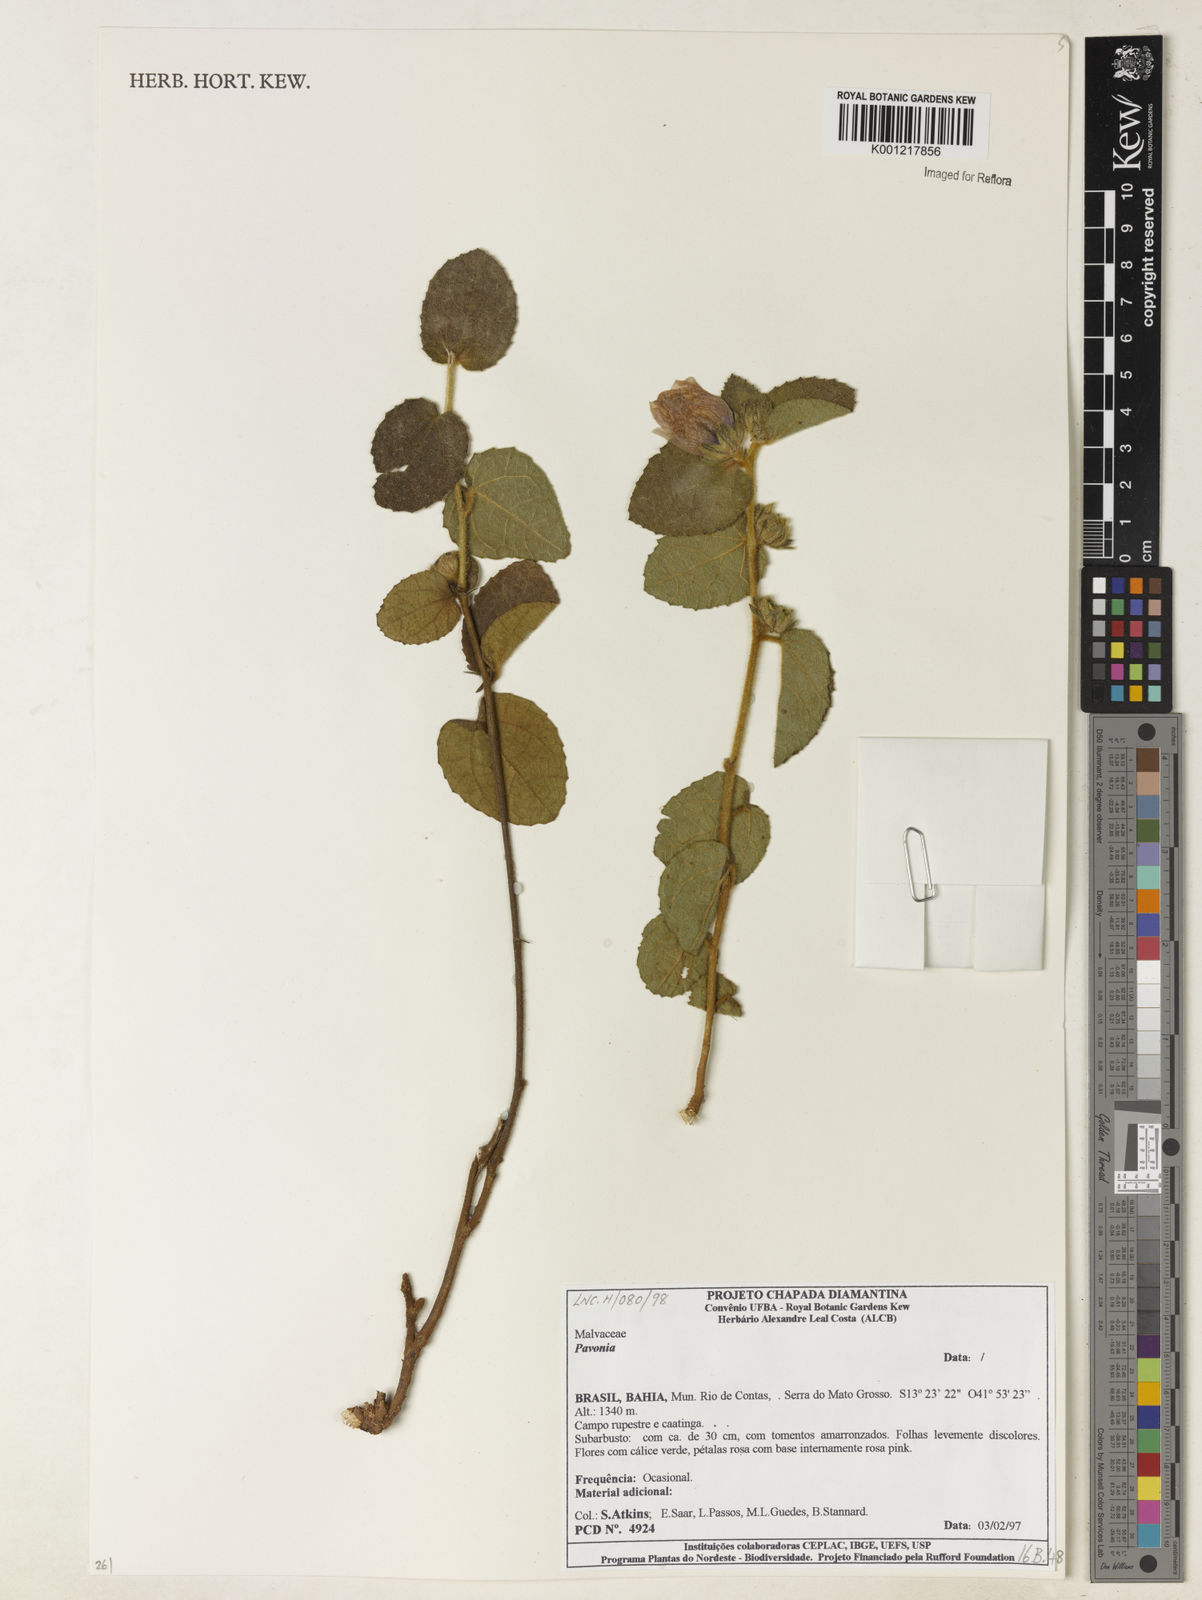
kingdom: Plantae
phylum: Tracheophyta
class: Magnoliopsida
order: Malvales
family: Malvaceae
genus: Pavonia
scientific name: Pavonia
